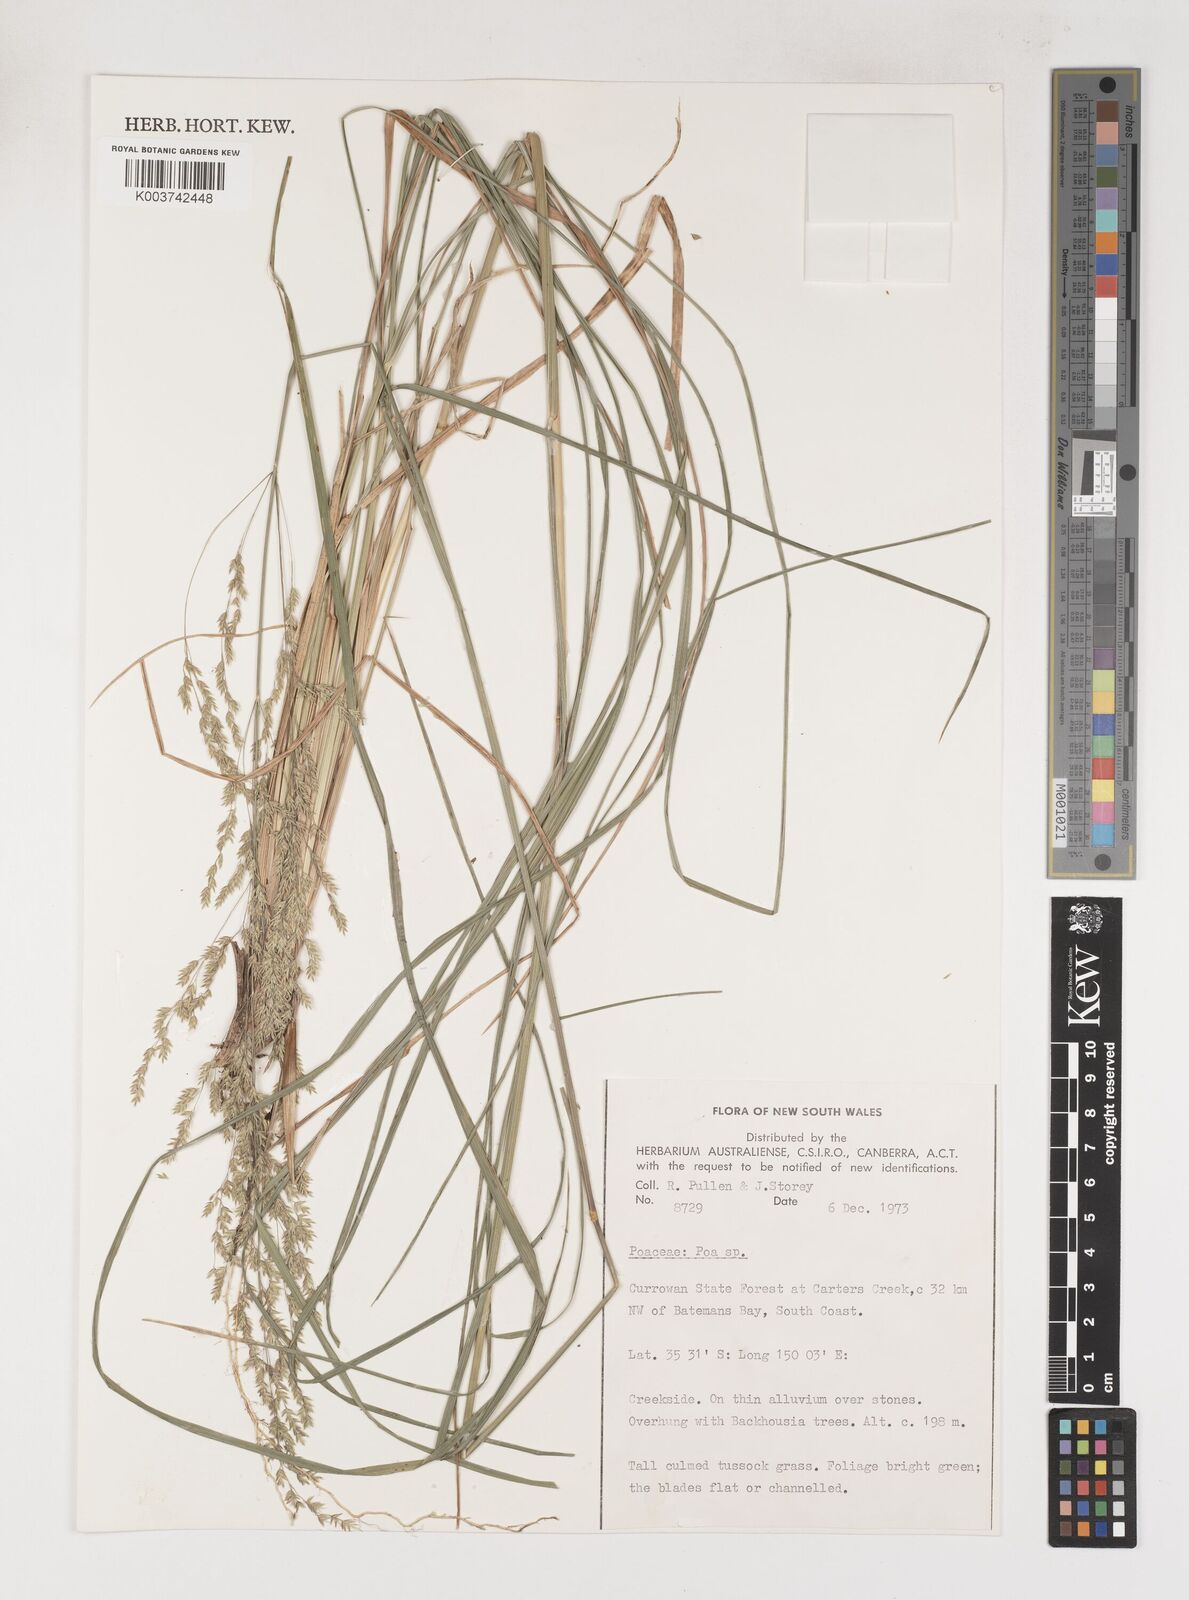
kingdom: Plantae
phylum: Tracheophyta
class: Liliopsida
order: Poales
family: Poaceae
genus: Poa
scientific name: Poa
